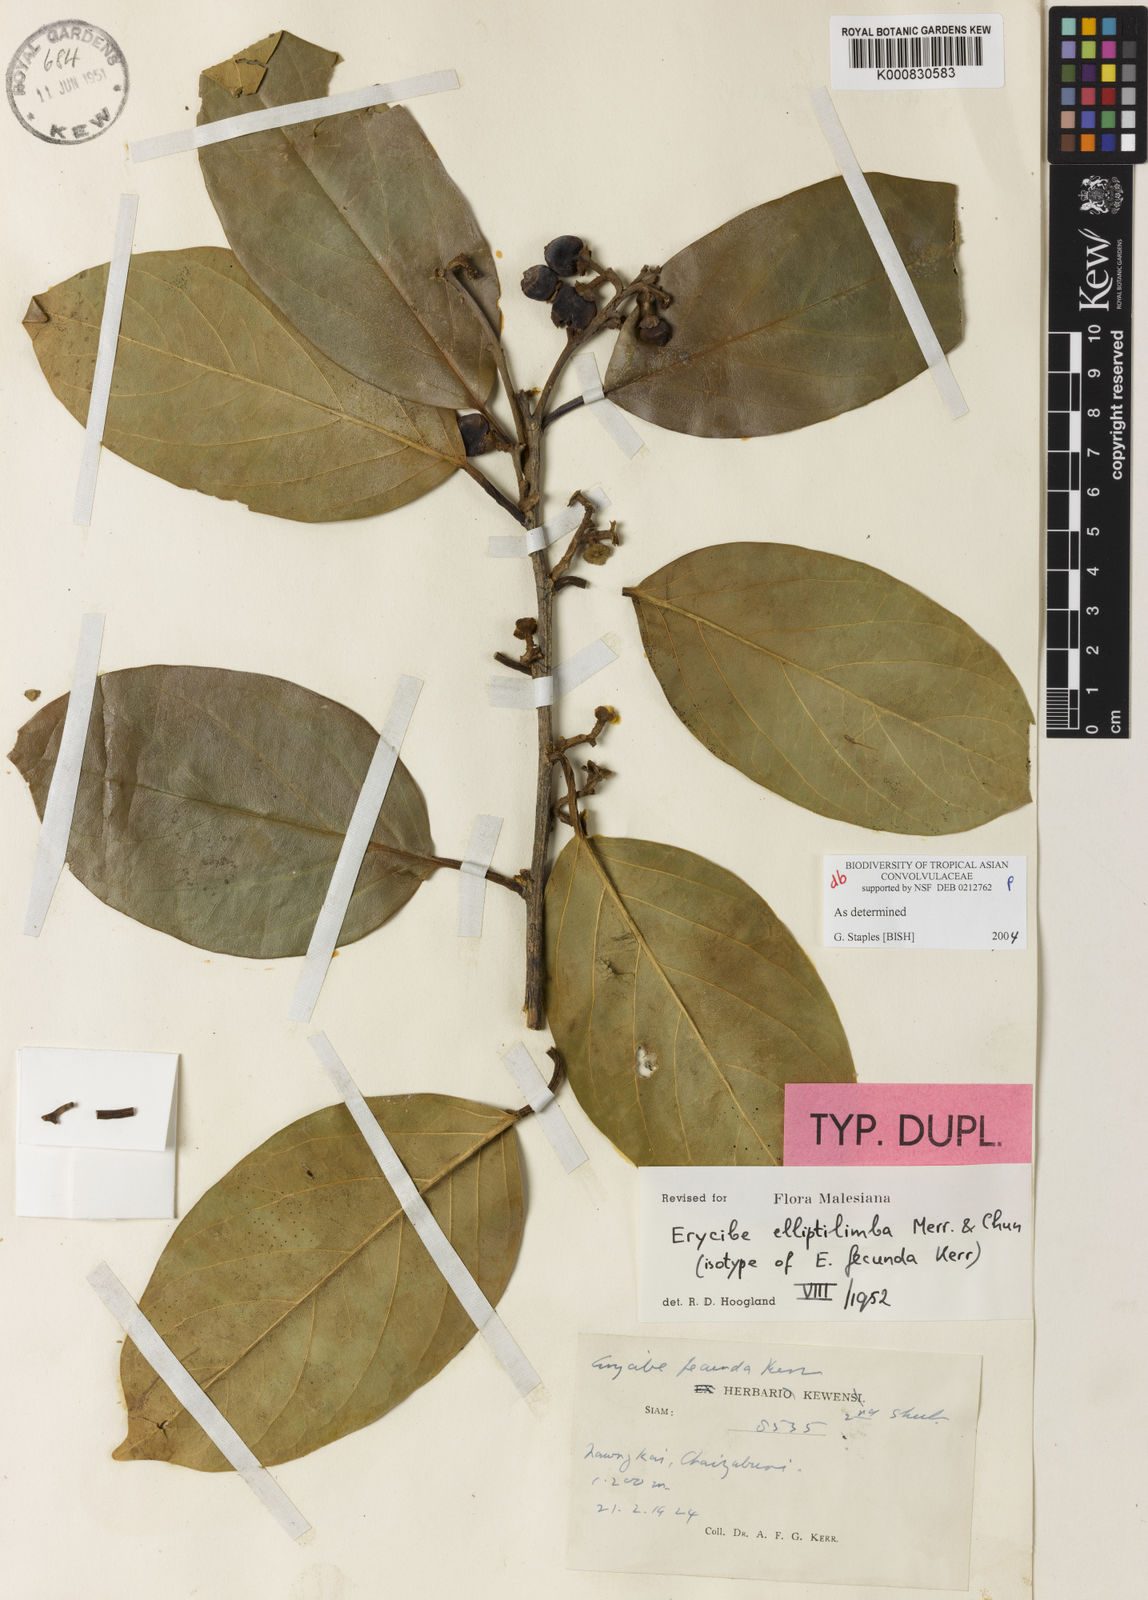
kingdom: Plantae
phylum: Tracheophyta
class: Magnoliopsida
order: Solanales
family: Convolvulaceae
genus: Erycibe
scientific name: Erycibe elliptilimba
